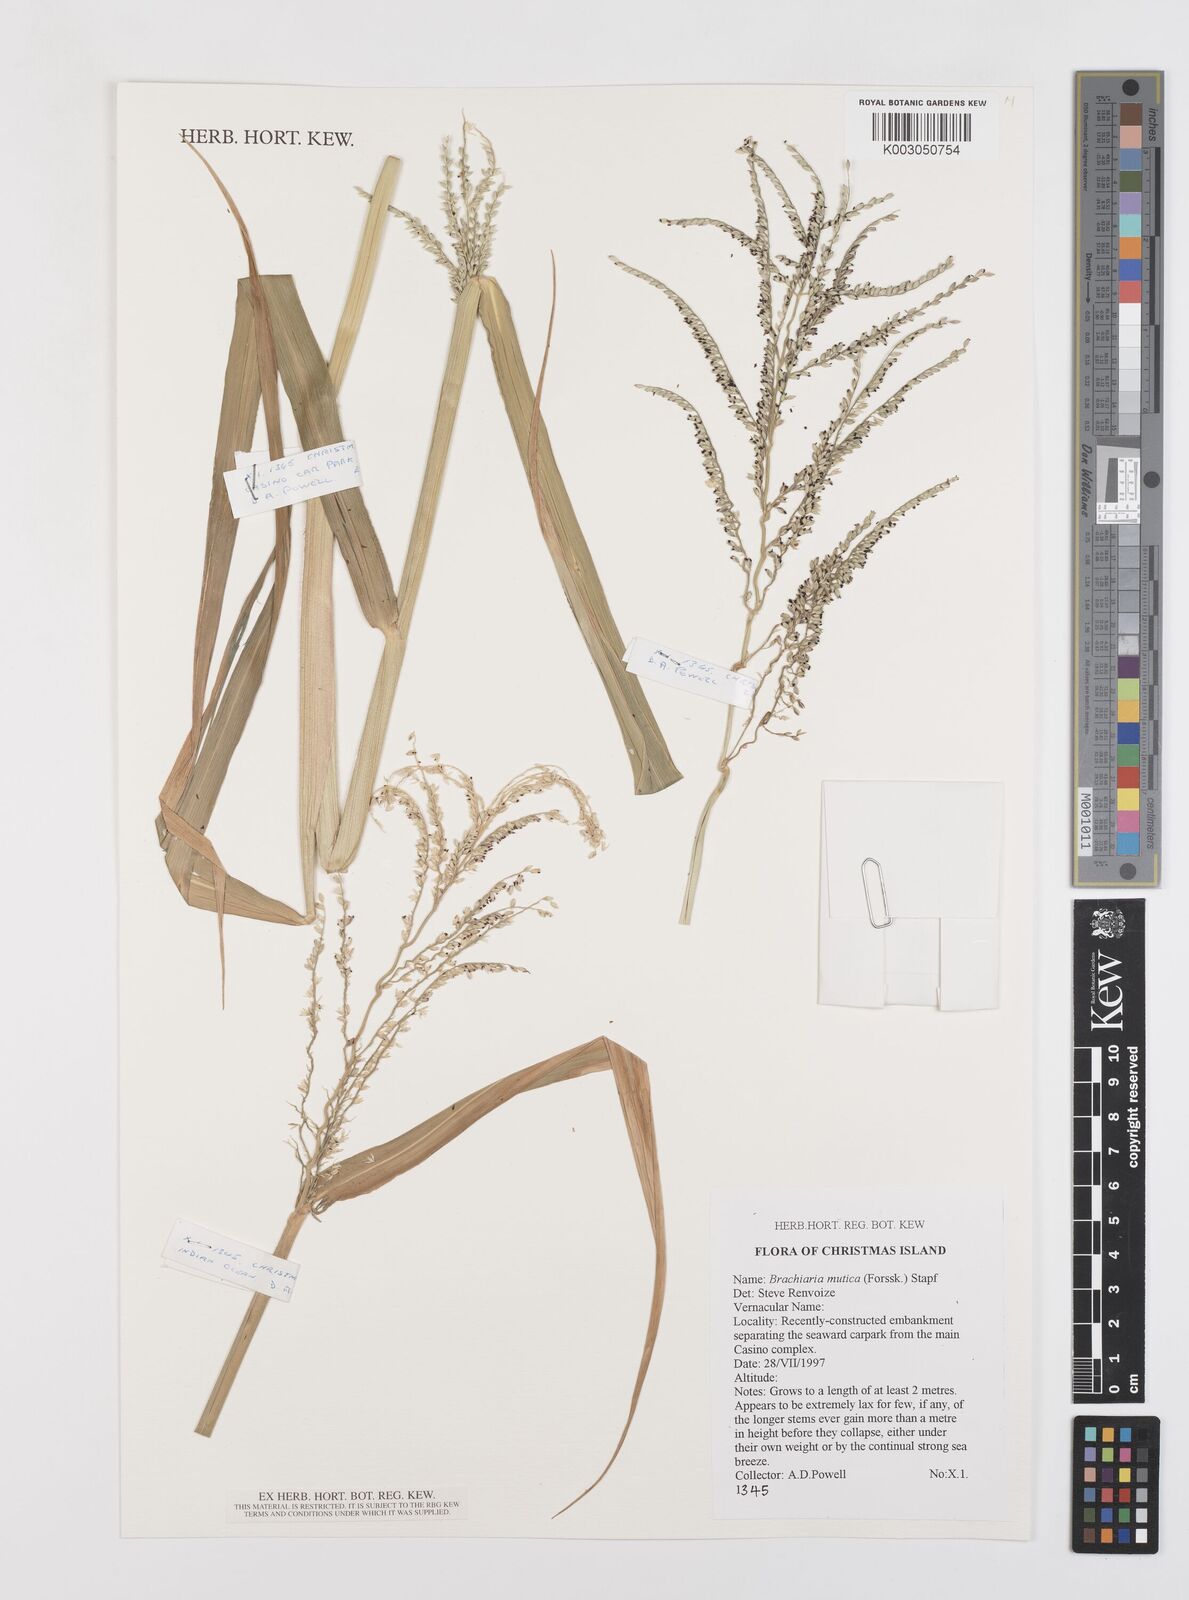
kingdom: Plantae
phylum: Tracheophyta
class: Liliopsida
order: Poales
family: Poaceae
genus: Urochloa
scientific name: Urochloa mutica
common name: Para grass
